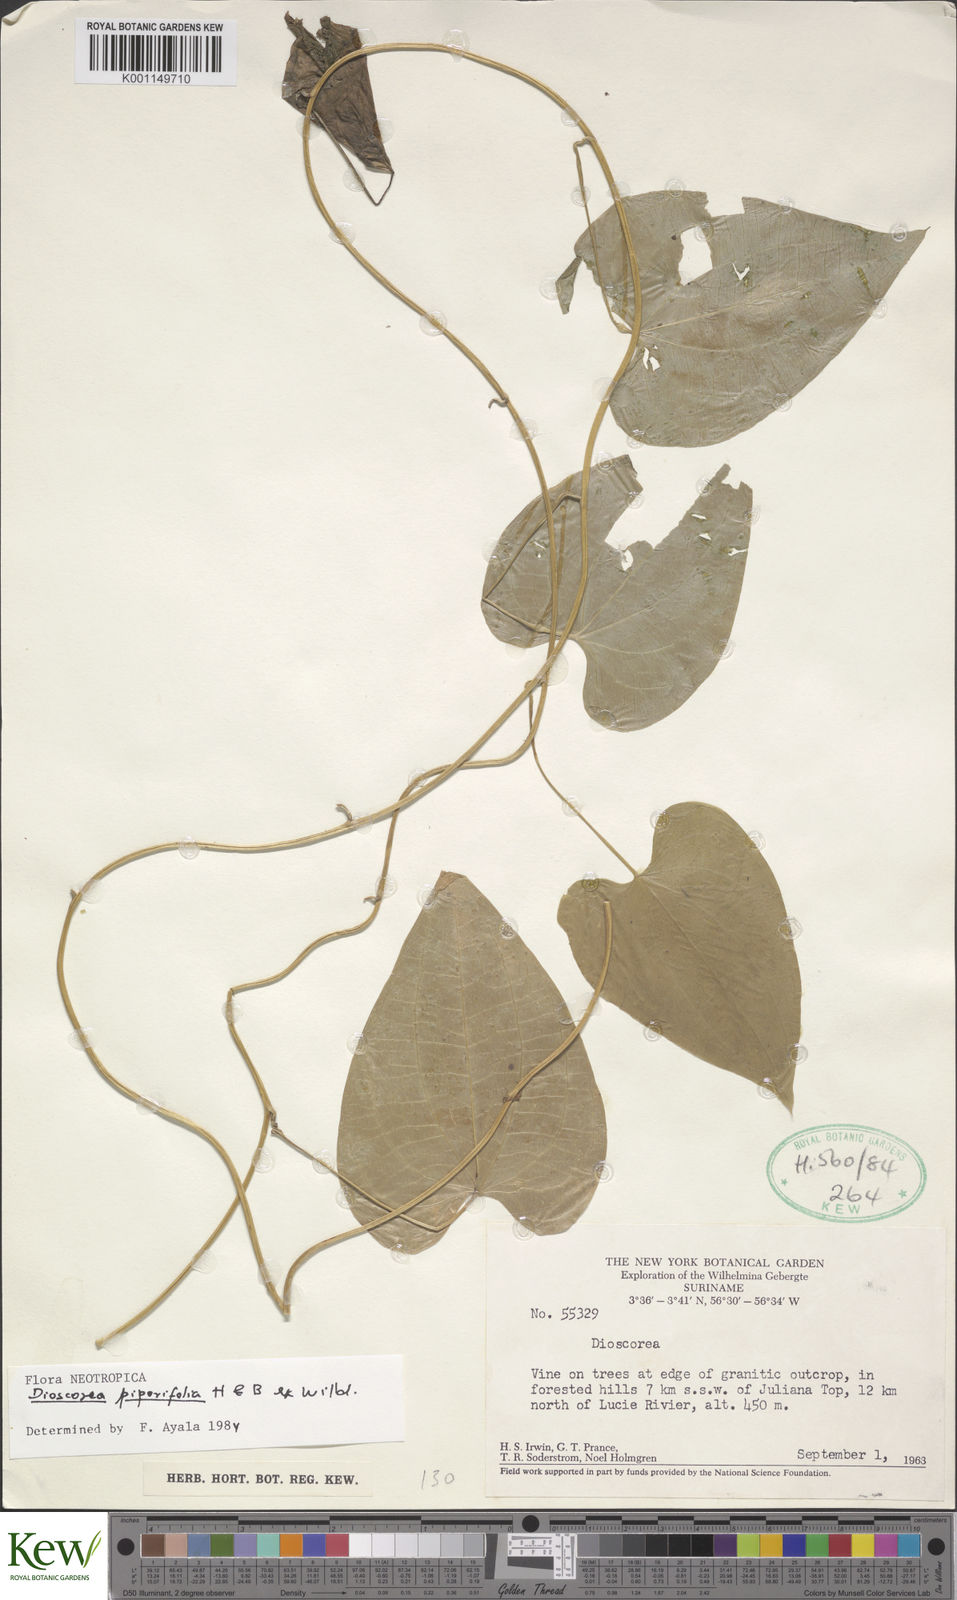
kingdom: Plantae
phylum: Tracheophyta
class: Liliopsida
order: Dioscoreales
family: Dioscoreaceae
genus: Dioscorea
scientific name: Dioscorea piperifolia
